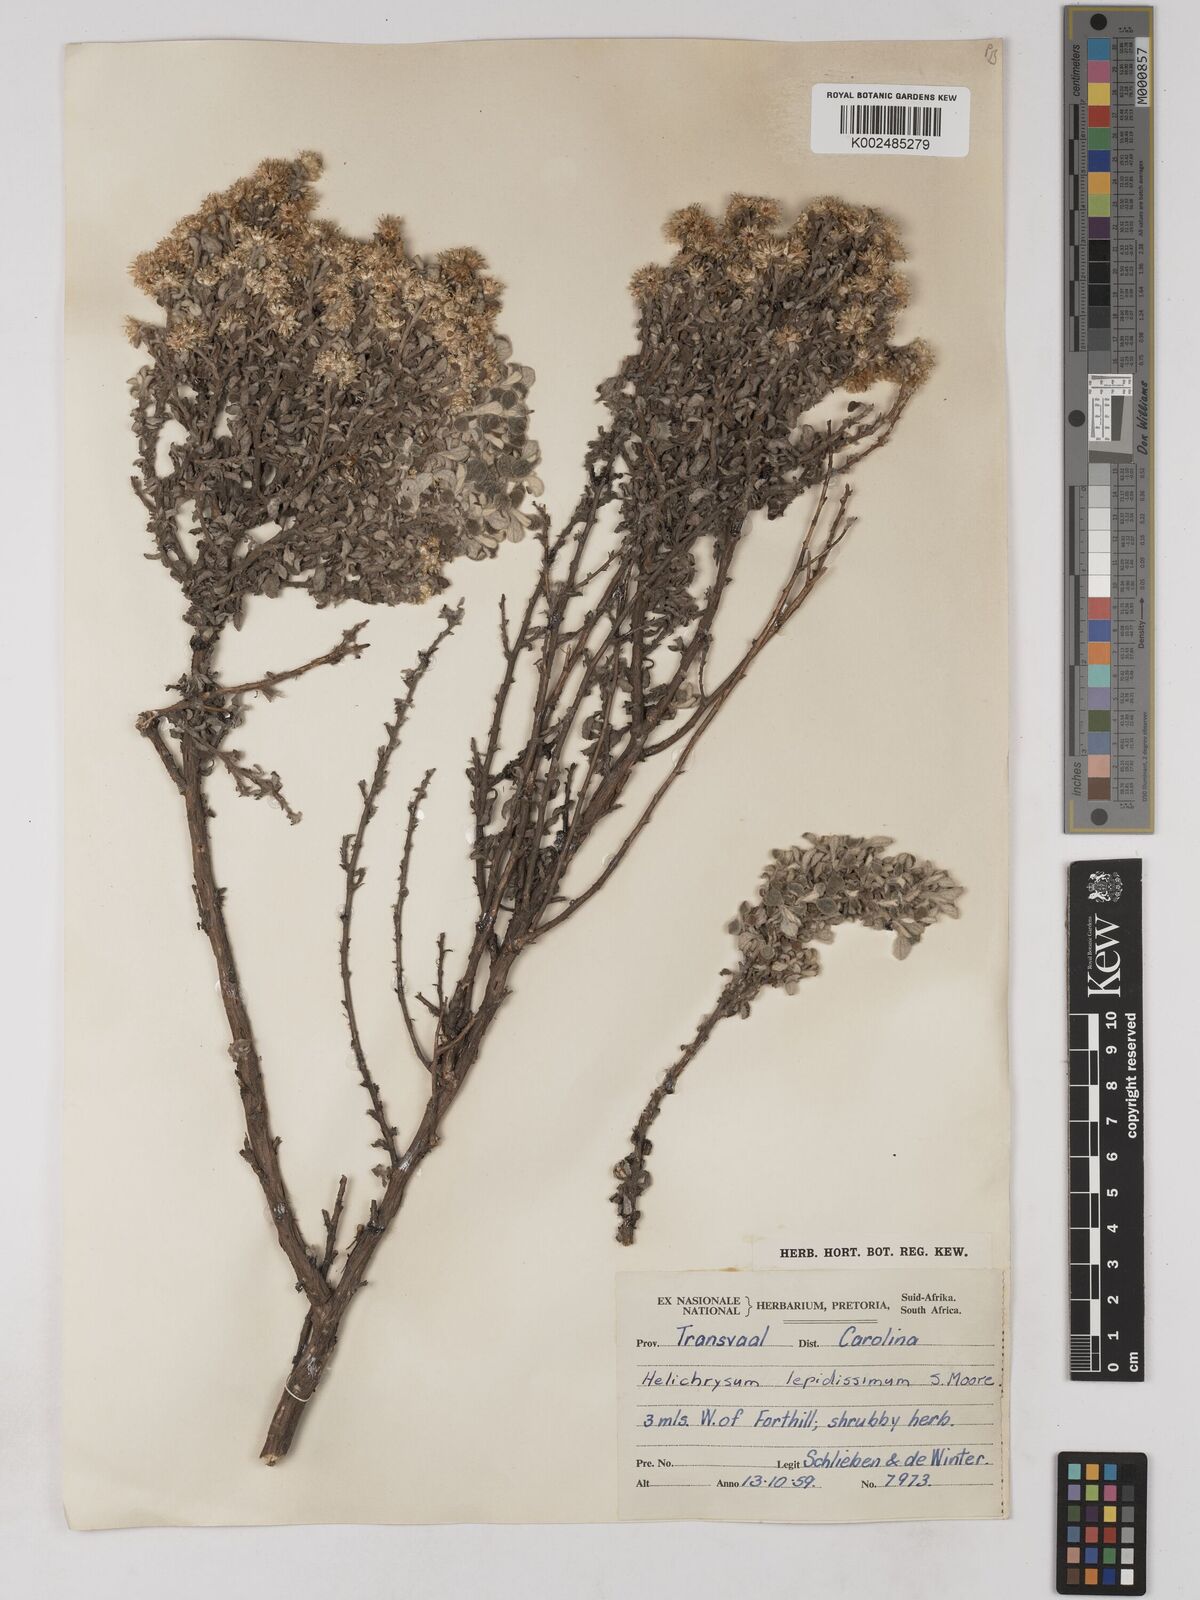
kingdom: Plantae
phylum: Tracheophyta
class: Magnoliopsida
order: Asterales
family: Asteraceae
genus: Helichrysum
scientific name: Helichrysum lepidissimum
